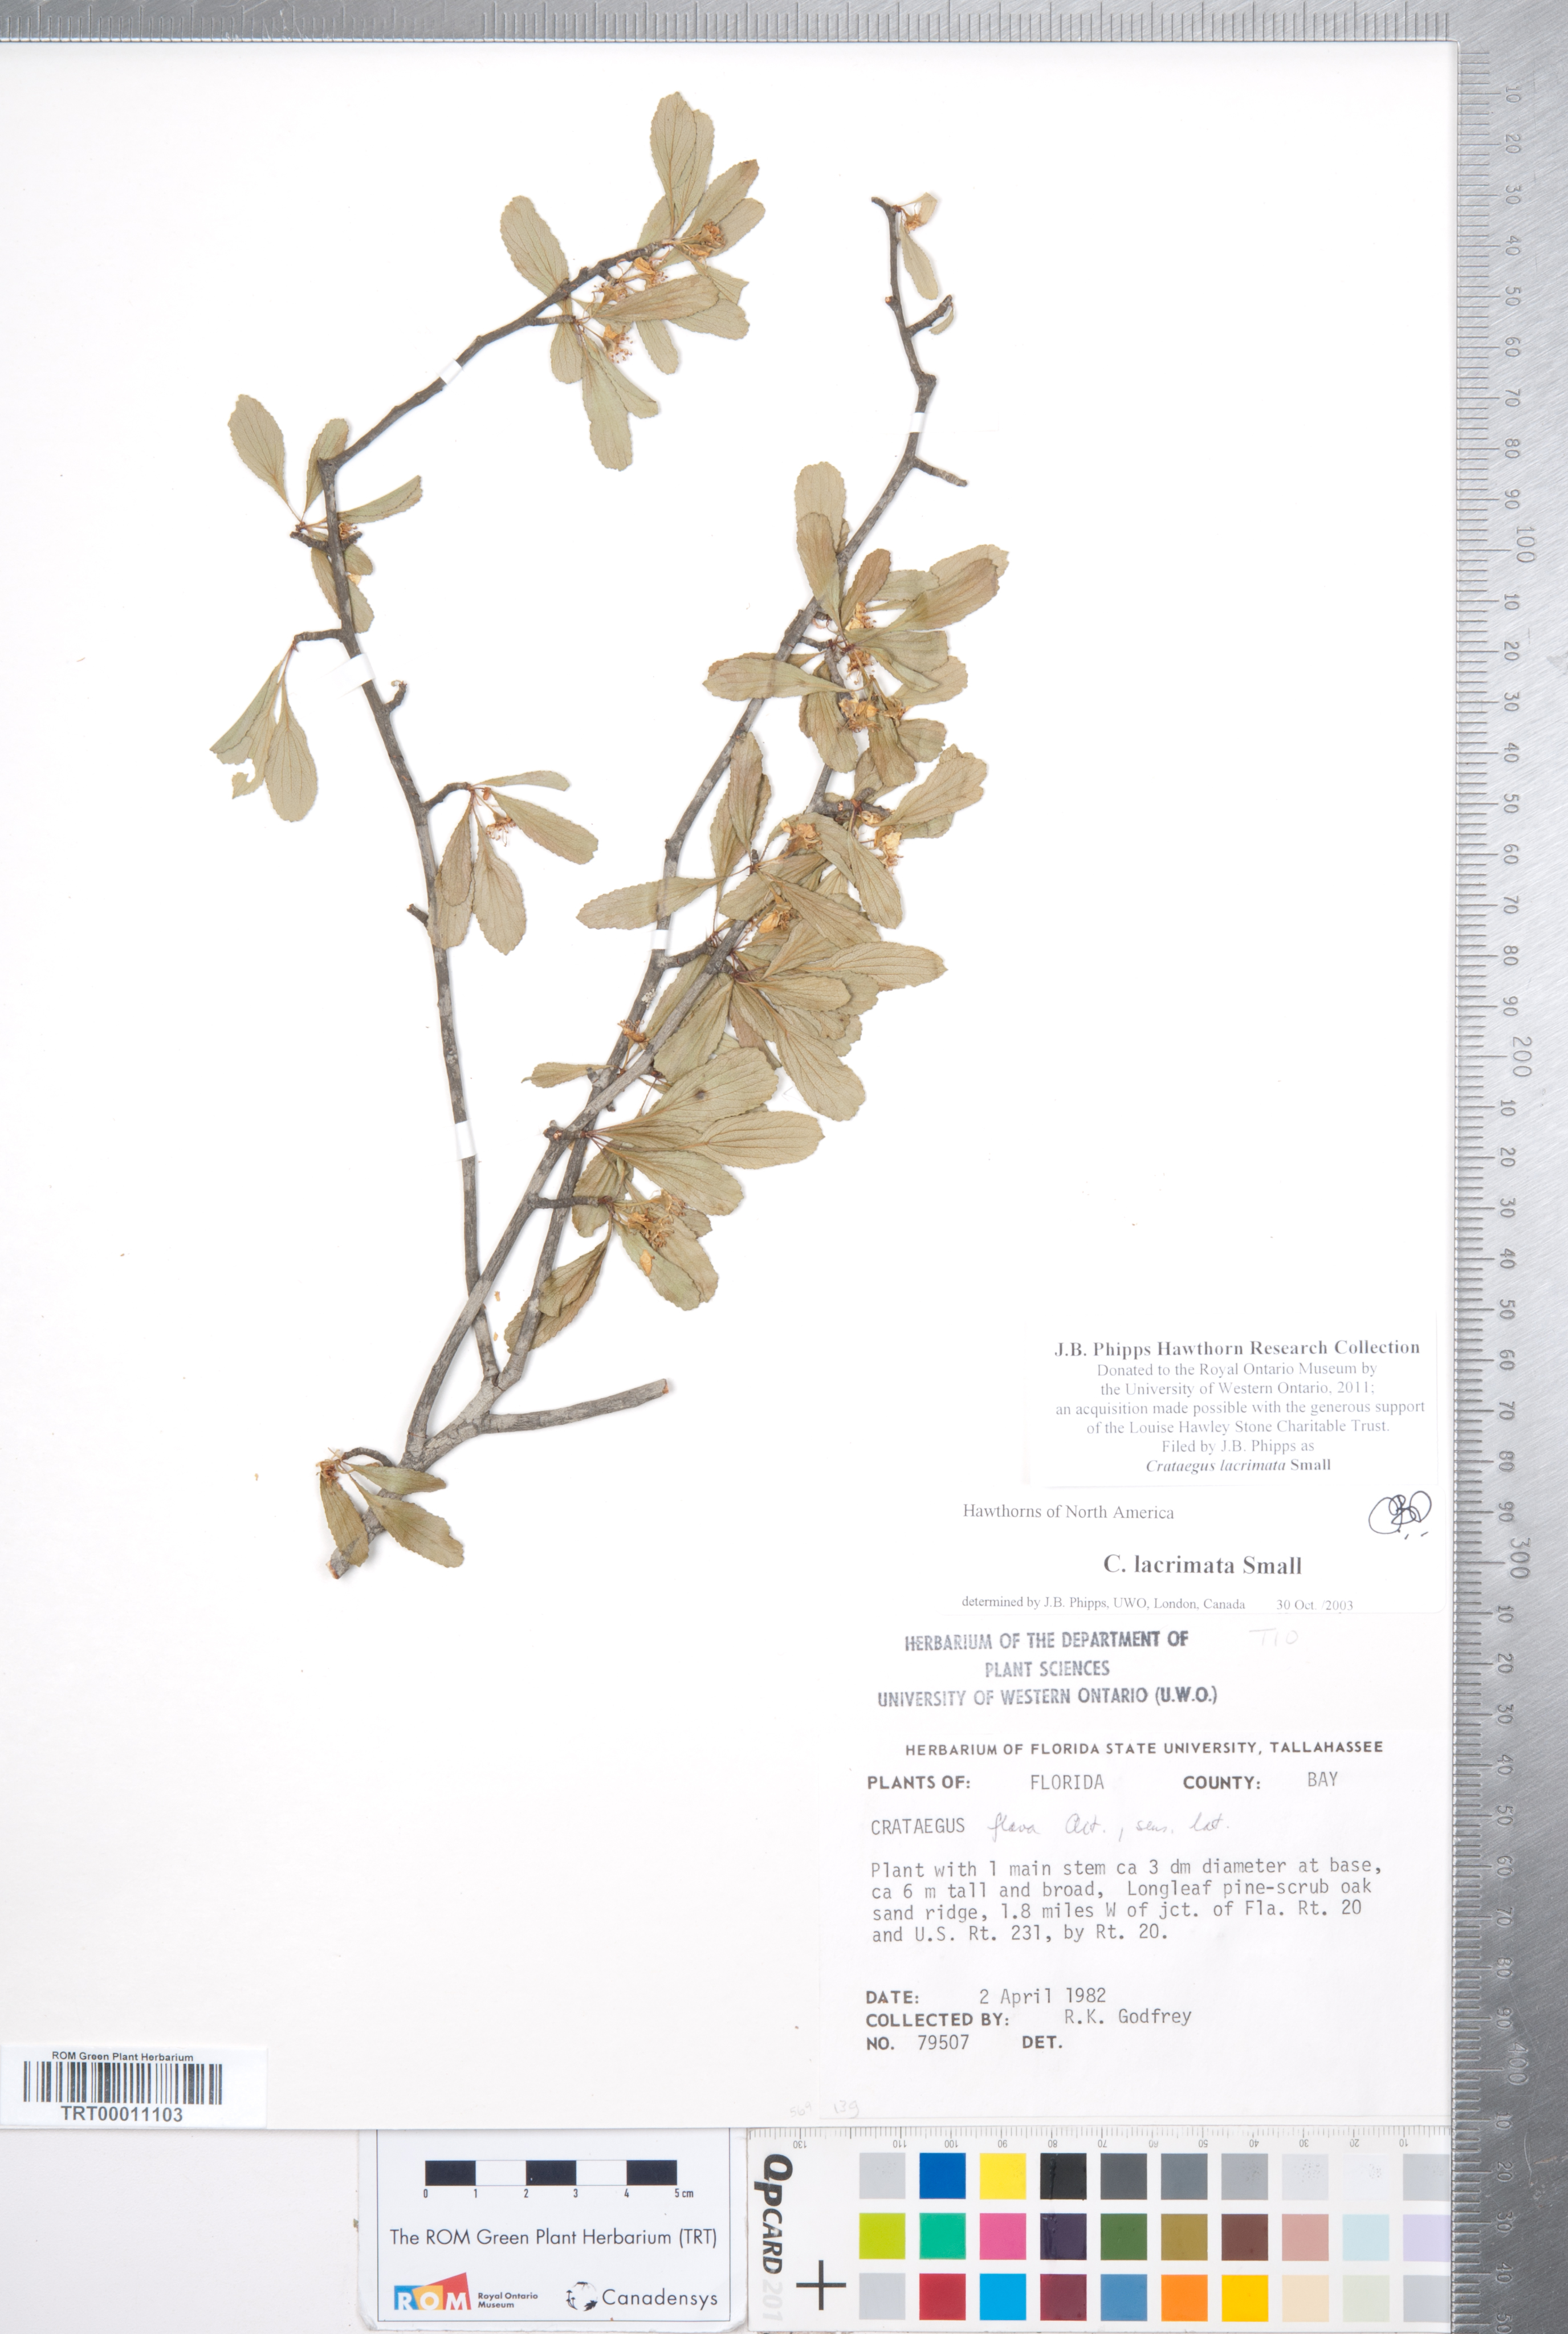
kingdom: Plantae
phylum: Tracheophyta
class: Magnoliopsida
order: Rosales
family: Rosaceae
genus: Crataegus
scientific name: Crataegus lacrimata
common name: Weeping hawthorn
